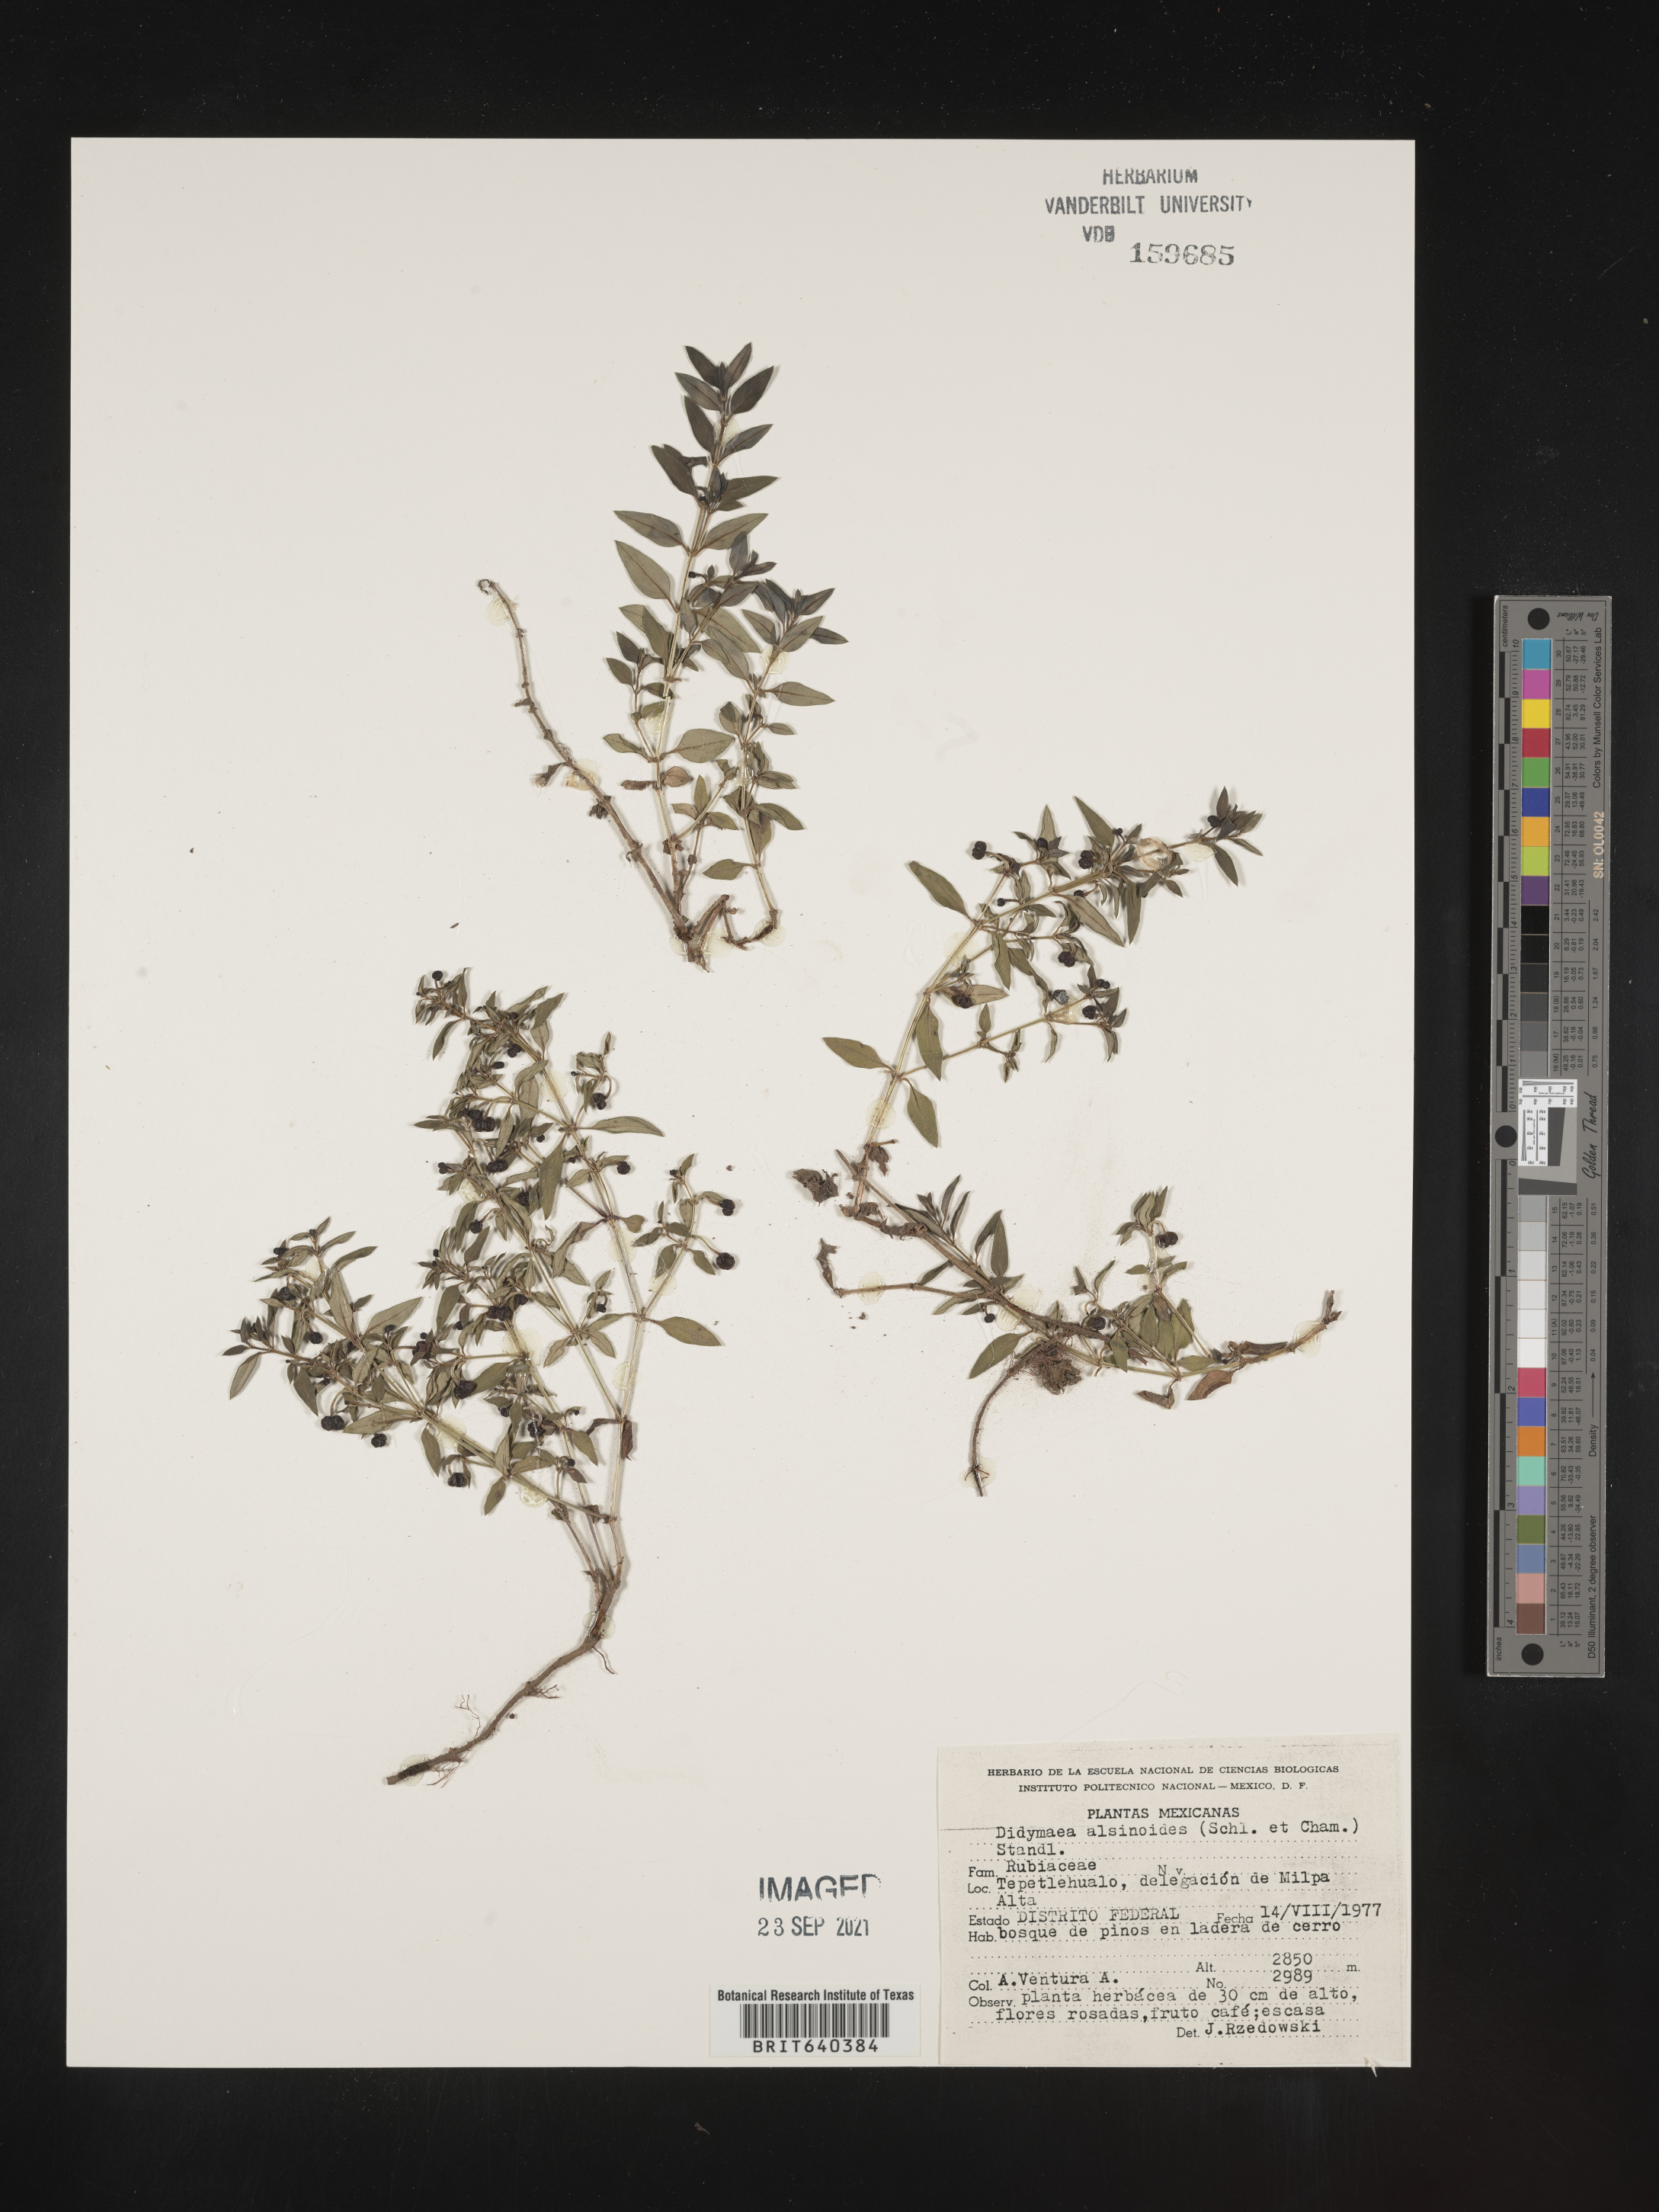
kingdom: Plantae
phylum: Tracheophyta
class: Magnoliopsida
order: Gentianales
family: Rubiaceae
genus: Didymaea
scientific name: Didymaea
